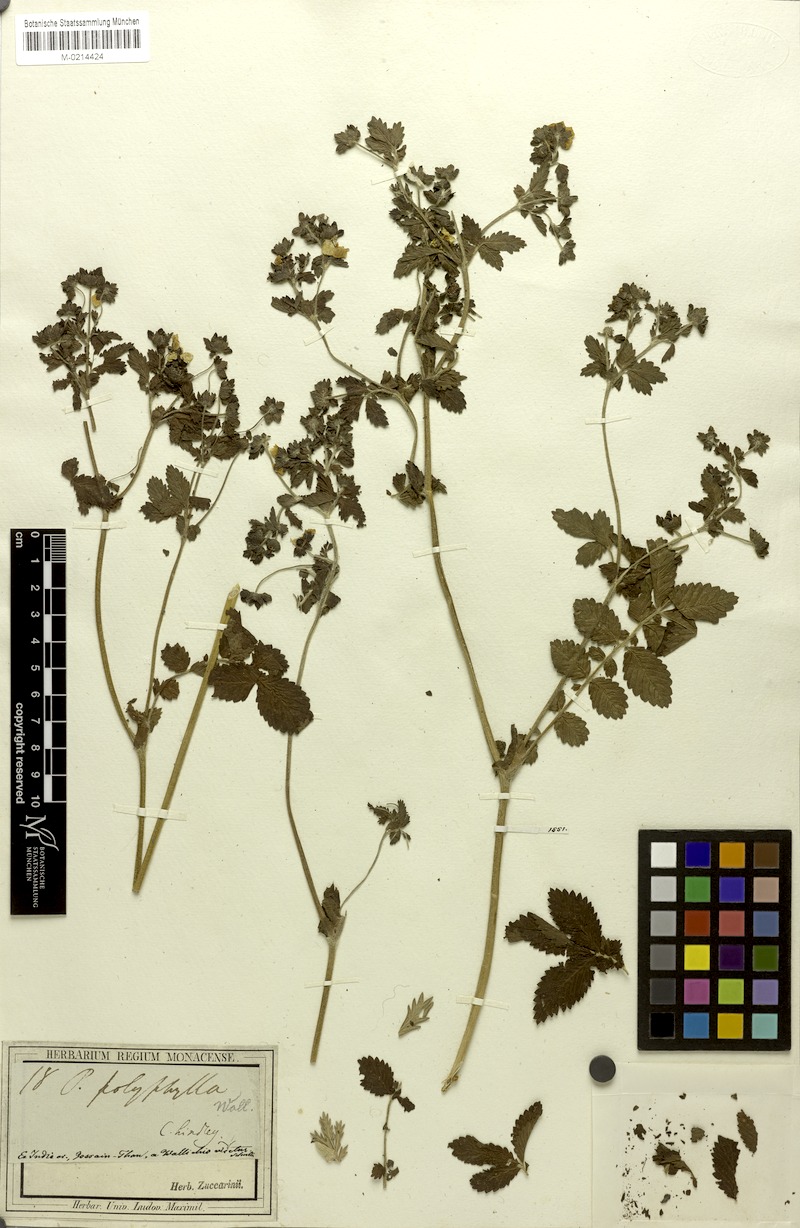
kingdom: Plantae
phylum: Tracheophyta
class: Magnoliopsida
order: Rosales
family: Rosaceae
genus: Argentina
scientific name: Argentina polyphylla
